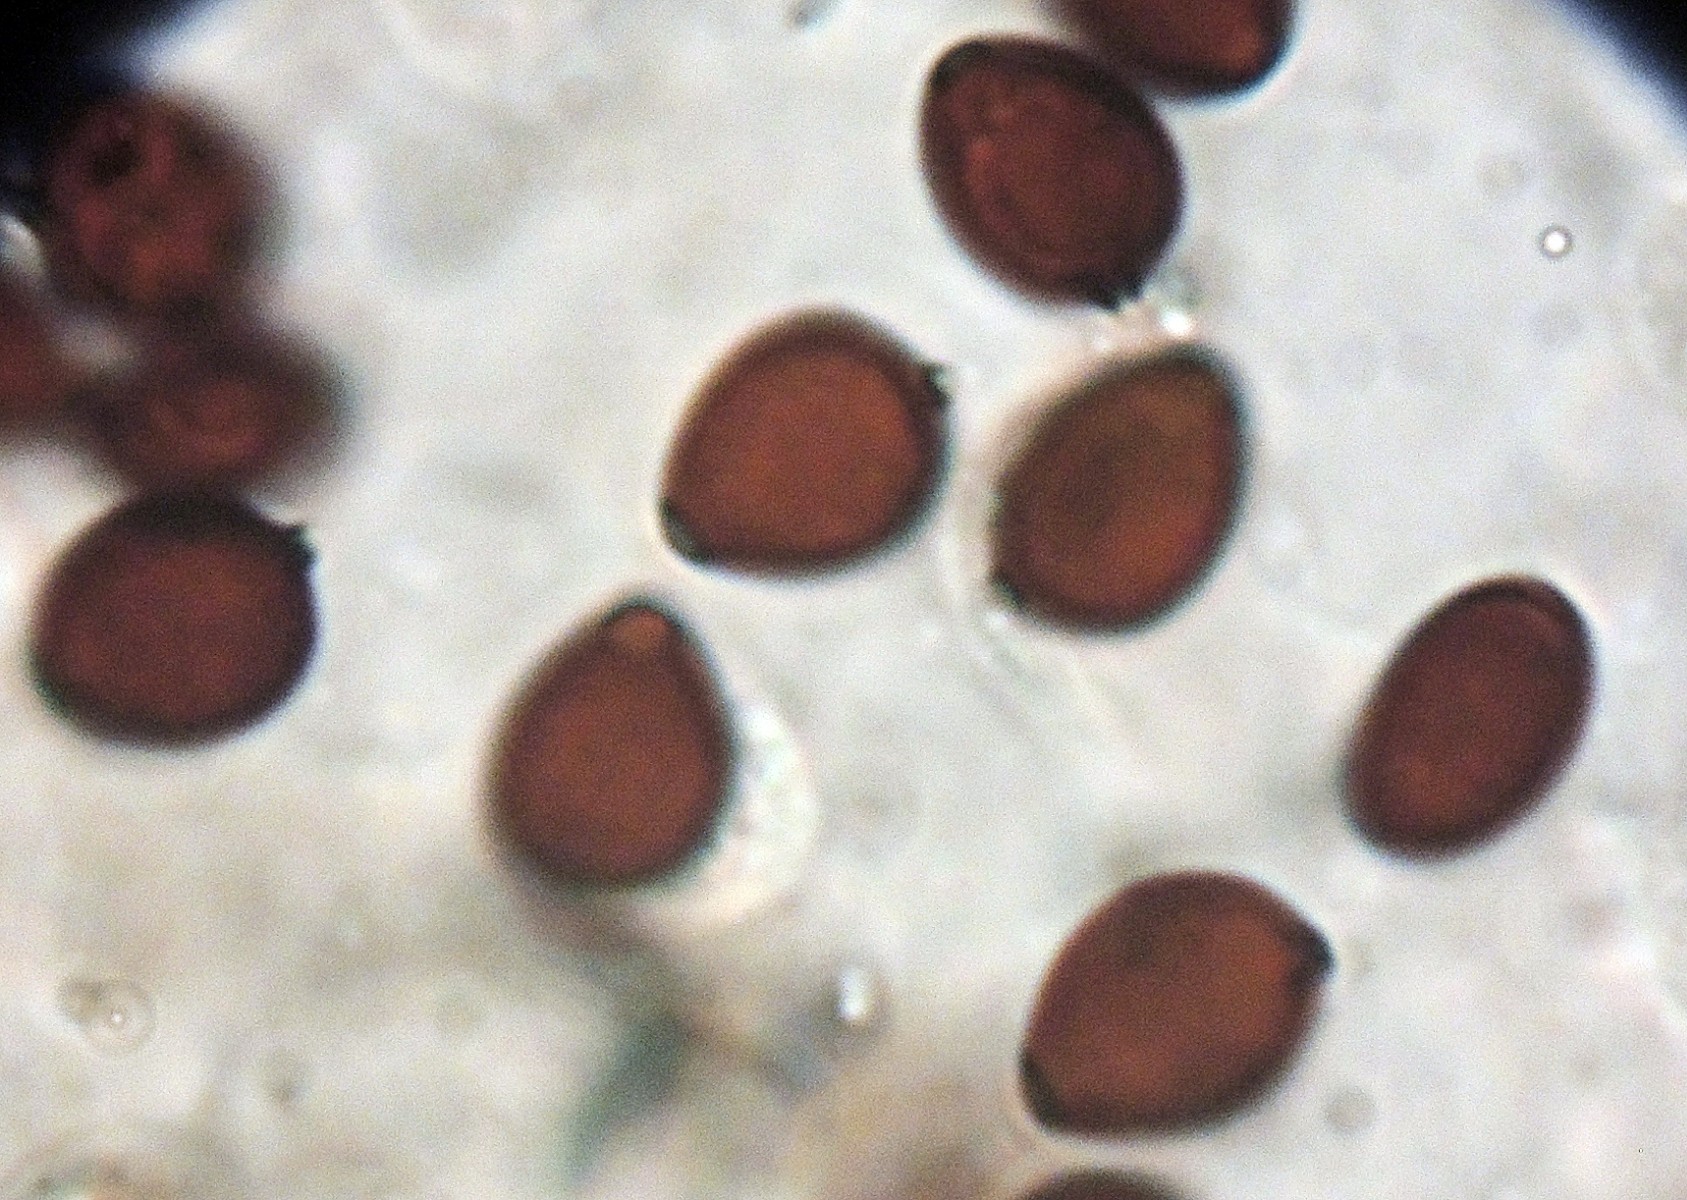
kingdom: Fungi
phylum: Basidiomycota
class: Agaricomycetes
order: Agaricales
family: Psathyrellaceae
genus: Parasola
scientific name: Parasola crataegi
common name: tjørne-hjulhat
